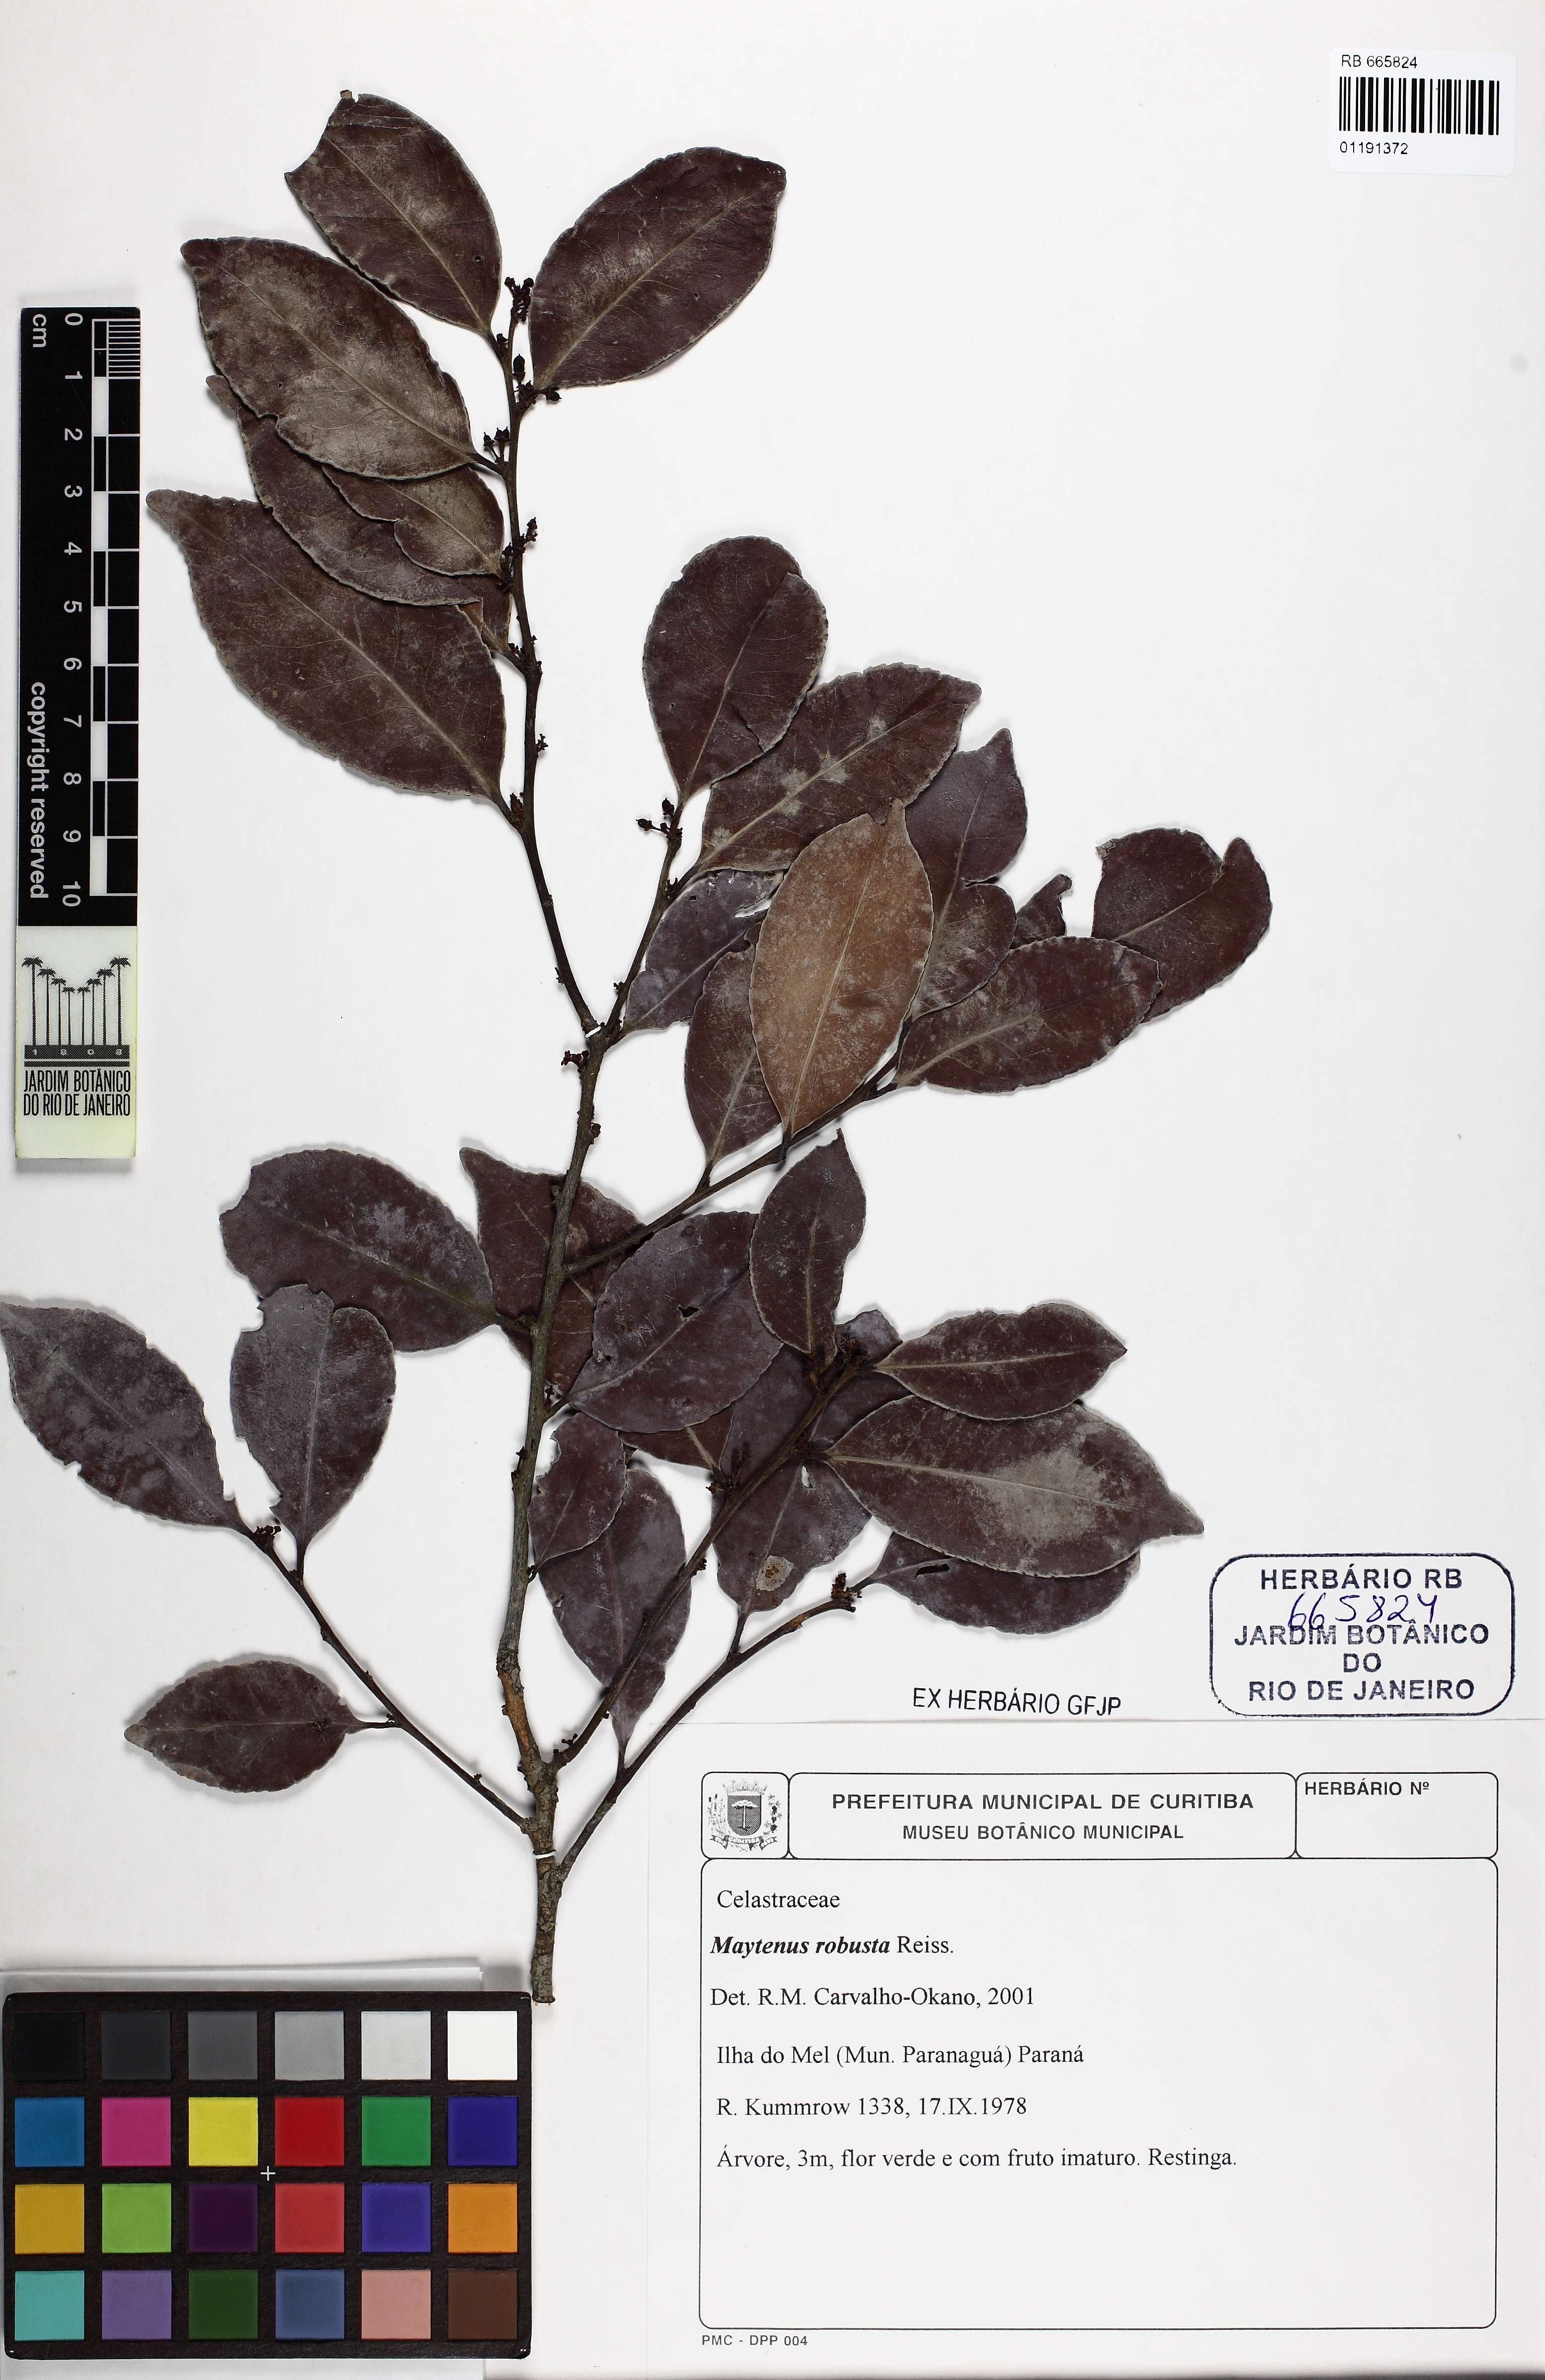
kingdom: Plantae
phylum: Tracheophyta
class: Magnoliopsida
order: Celastrales
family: Celastraceae
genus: Monteverdia
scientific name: Monteverdia robusta
